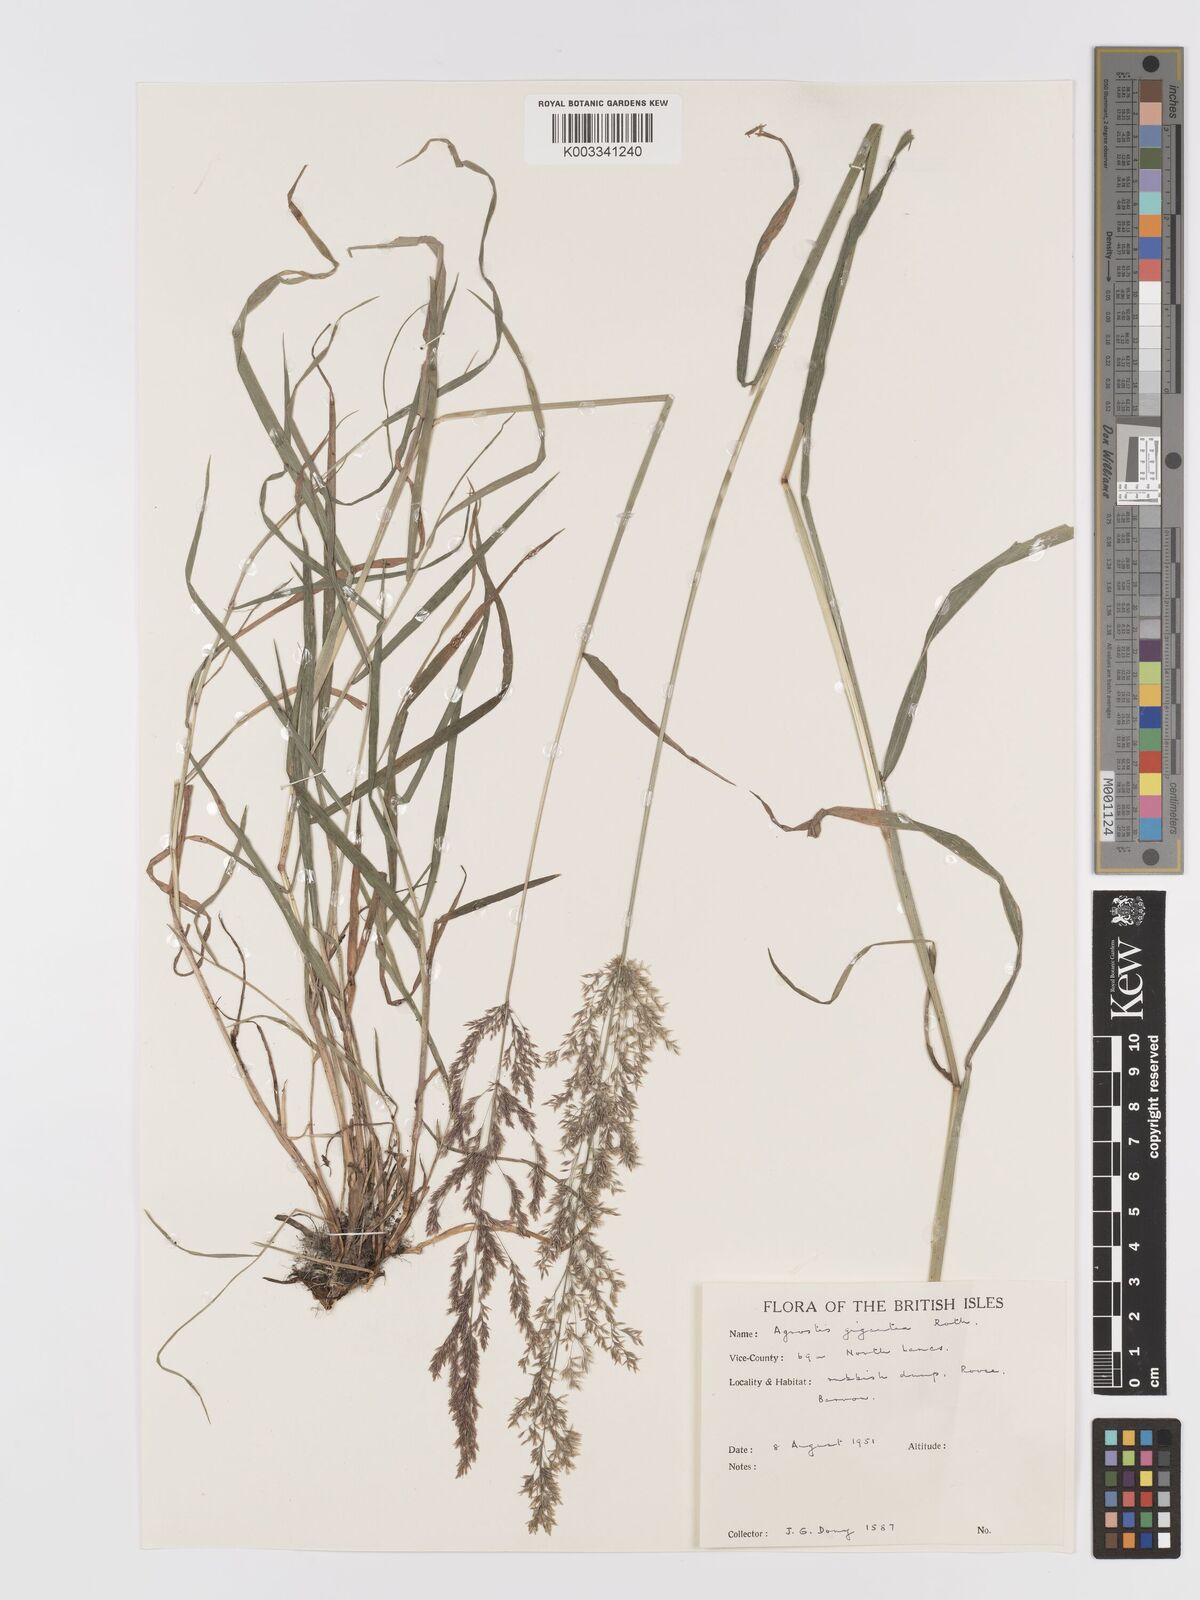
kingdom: Plantae
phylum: Tracheophyta
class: Liliopsida
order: Poales
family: Poaceae
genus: Agrostis
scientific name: Agrostis gigantea
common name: Black bent
